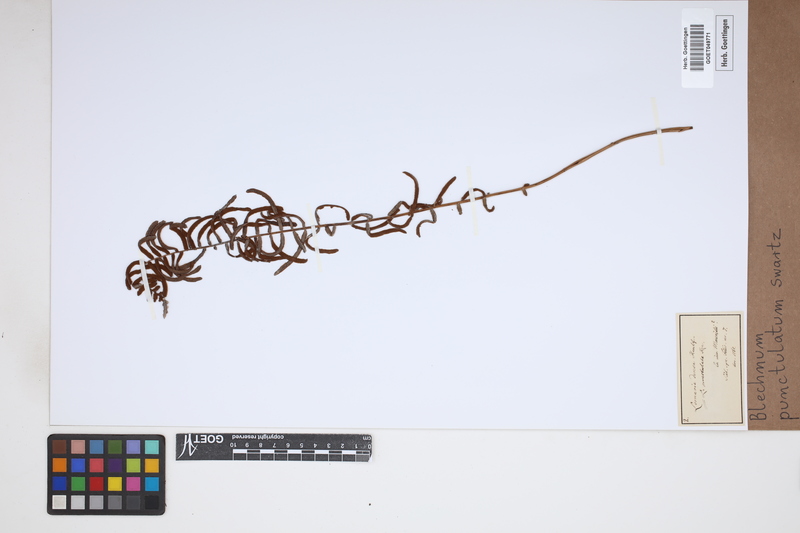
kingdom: Plantae
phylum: Tracheophyta
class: Polypodiopsida
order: Polypodiales
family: Blechnaceae
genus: Blechnum
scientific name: Blechnum punctulatum
